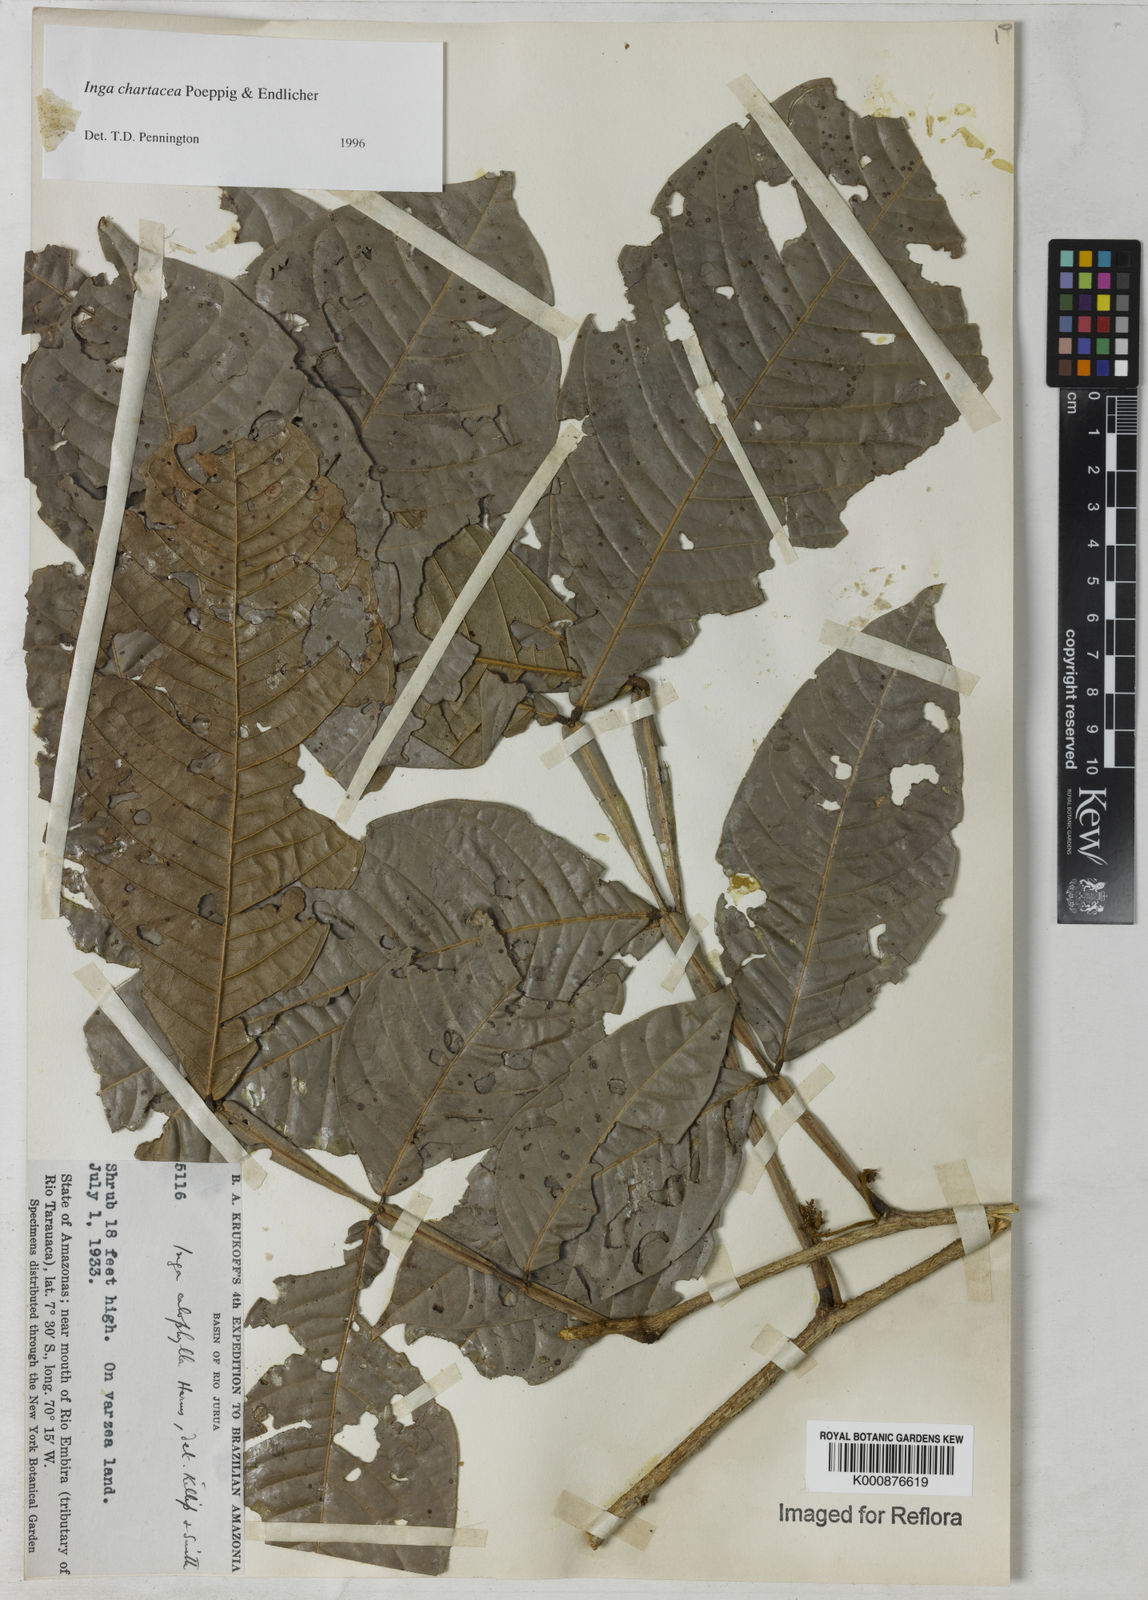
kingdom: Plantae
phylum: Tracheophyta
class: Magnoliopsida
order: Fabales
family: Fabaceae
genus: Inga
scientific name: Inga chartacea
